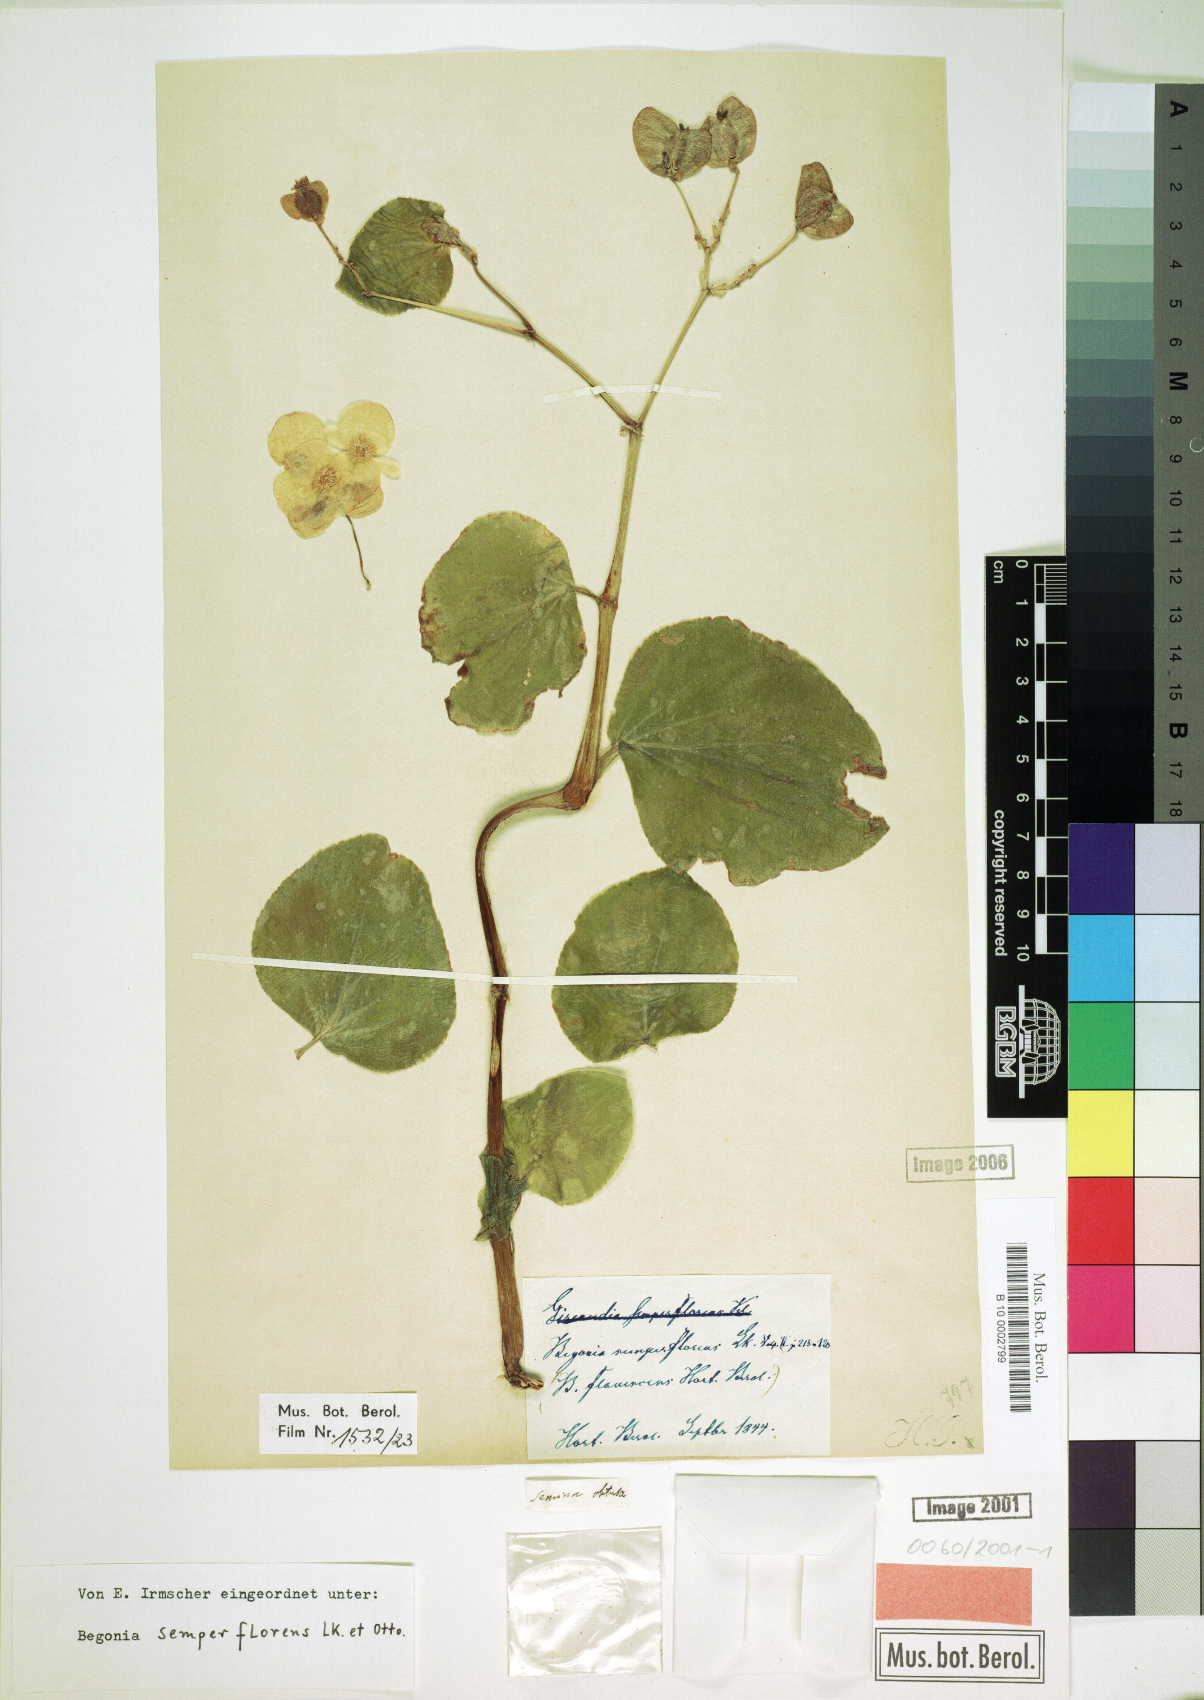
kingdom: Plantae
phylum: Tracheophyta
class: Magnoliopsida
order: Cucurbitales
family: Begoniaceae
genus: Begonia
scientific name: Begonia cucullata
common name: Clubbed begonia
